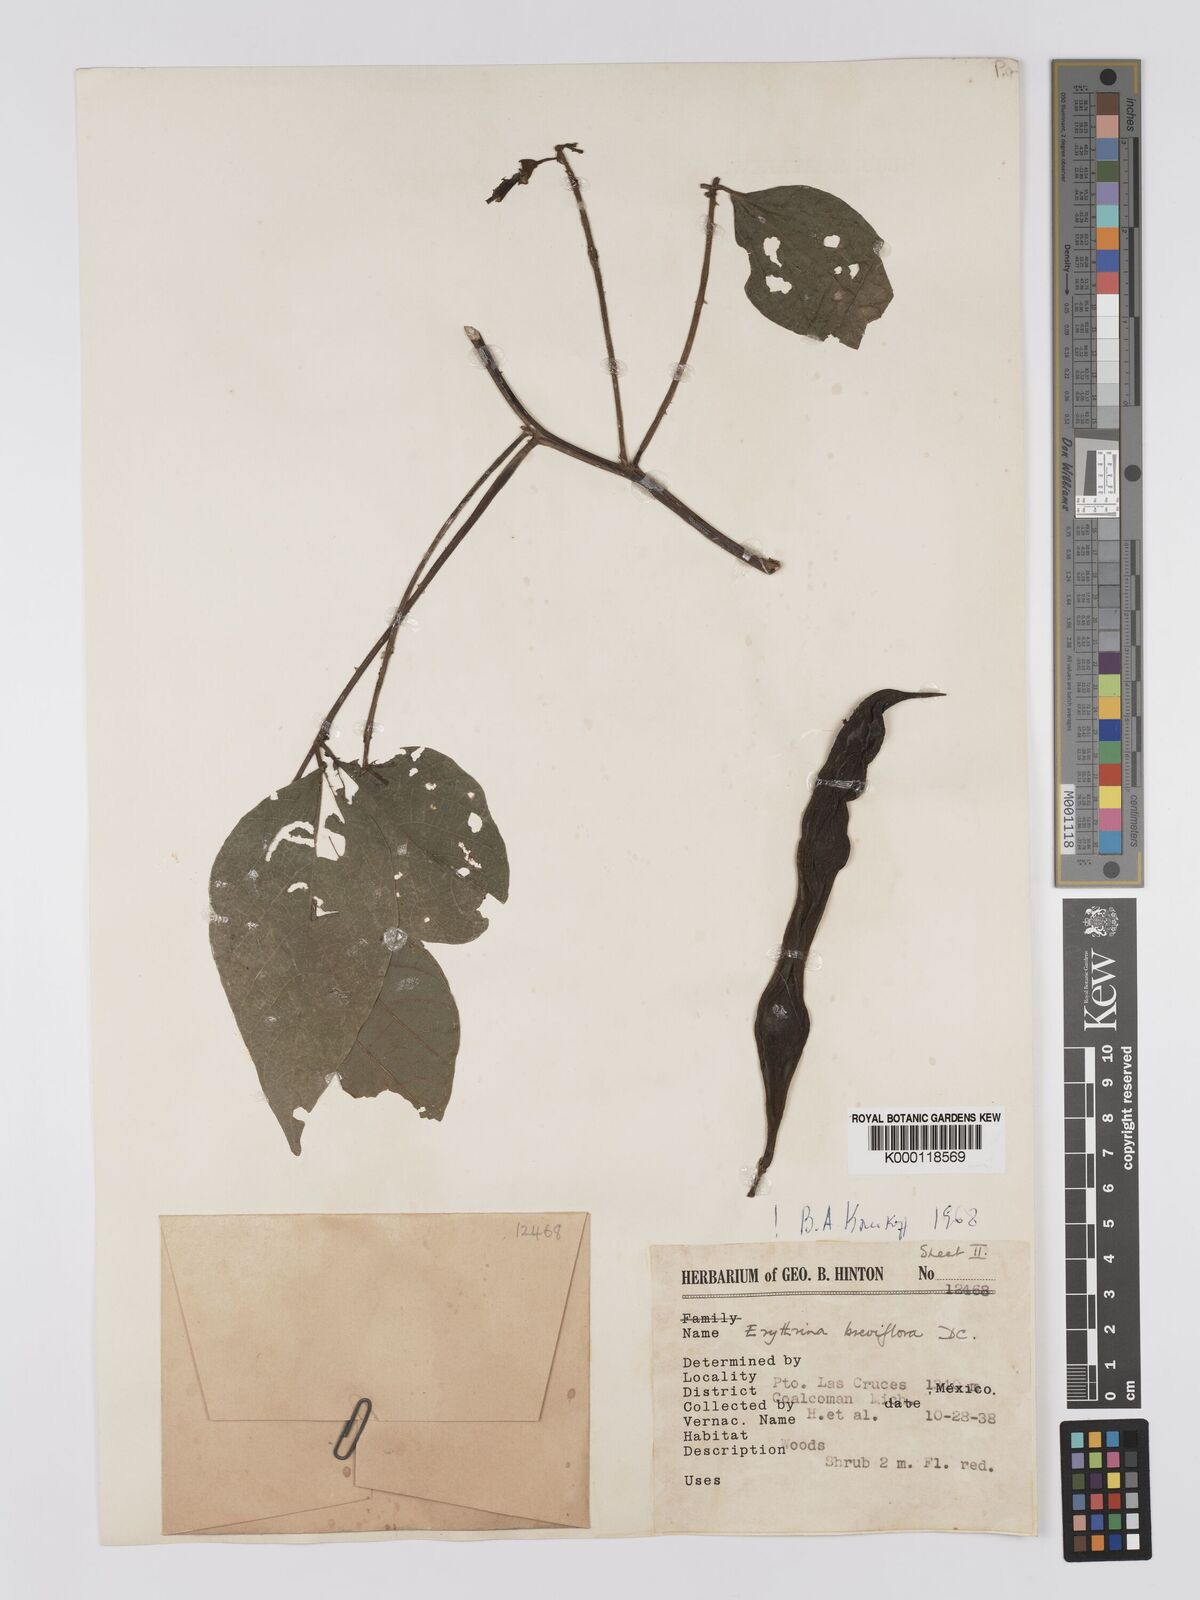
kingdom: Plantae
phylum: Tracheophyta
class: Magnoliopsida
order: Fabales
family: Fabaceae
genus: Erythrina
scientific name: Erythrina breviflora
